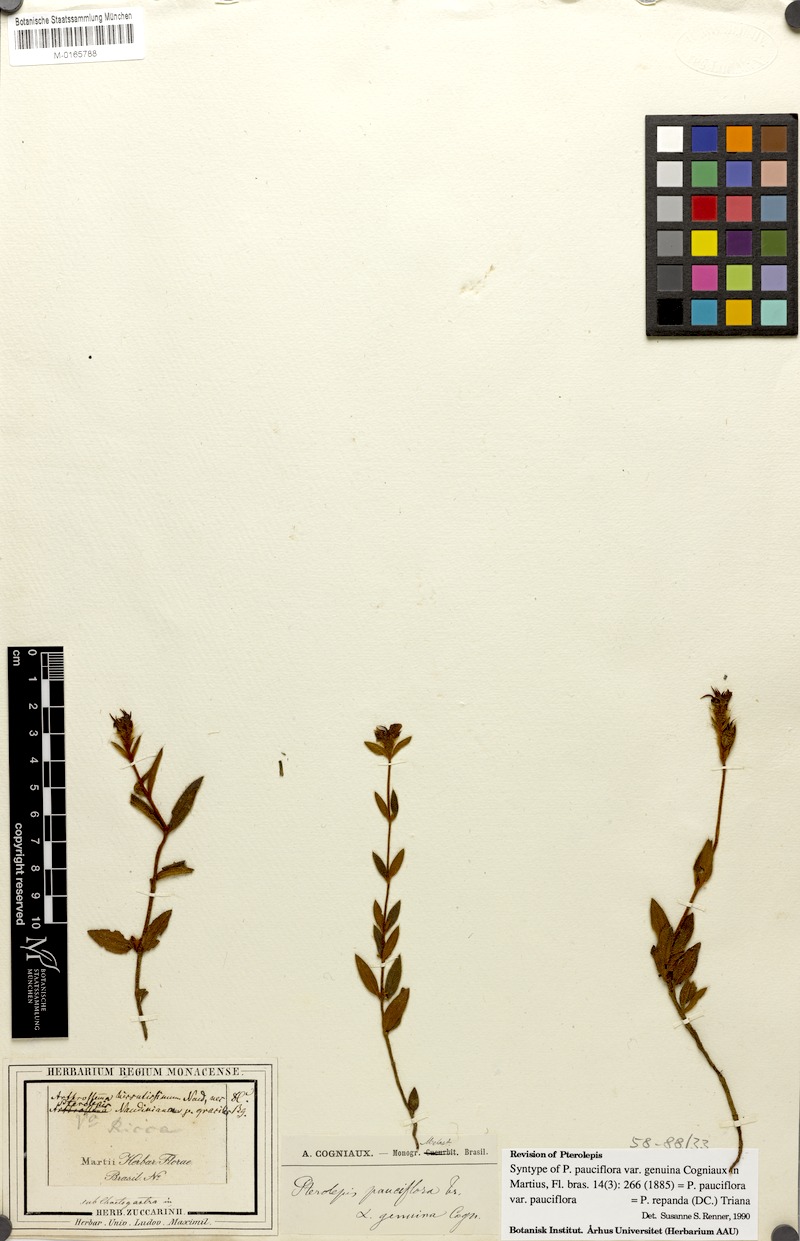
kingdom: Plantae
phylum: Tracheophyta
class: Magnoliopsida
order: Myrtales
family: Melastomataceae
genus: Pterolepis
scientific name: Pterolepis repanda
